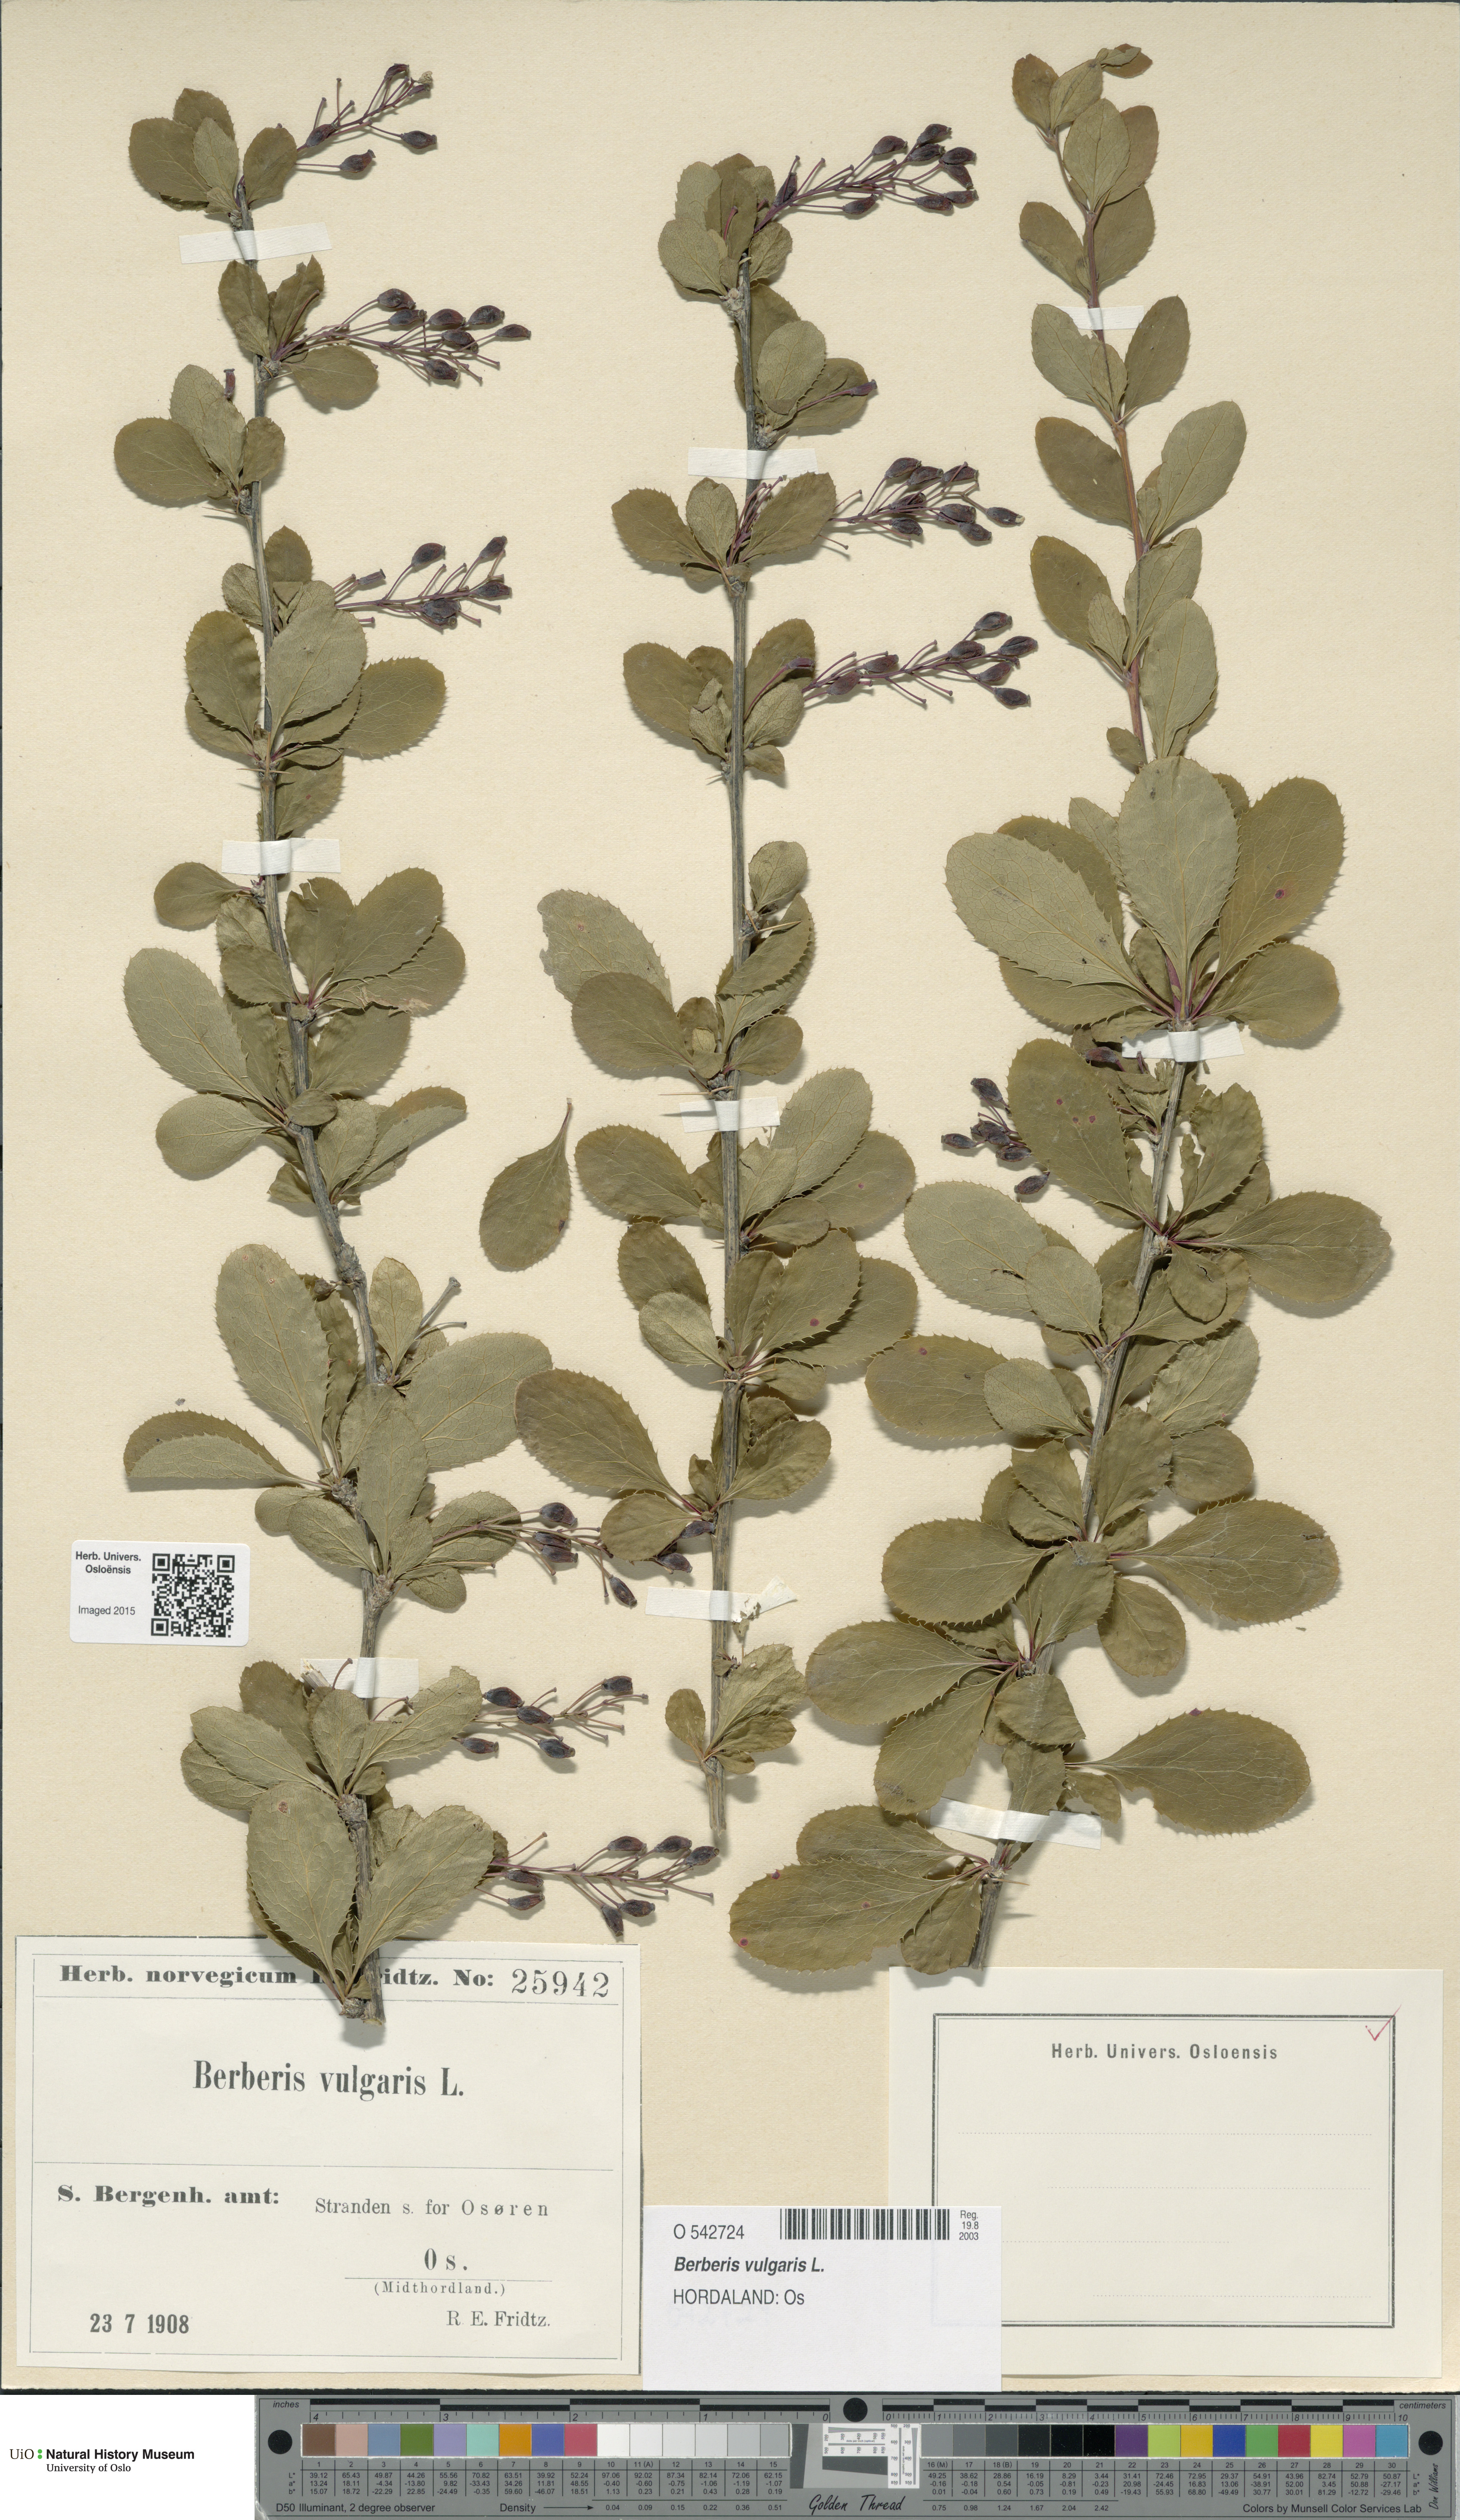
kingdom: Plantae
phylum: Tracheophyta
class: Magnoliopsida
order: Ranunculales
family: Berberidaceae
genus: Berberis
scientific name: Berberis vulgaris
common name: Barberry
